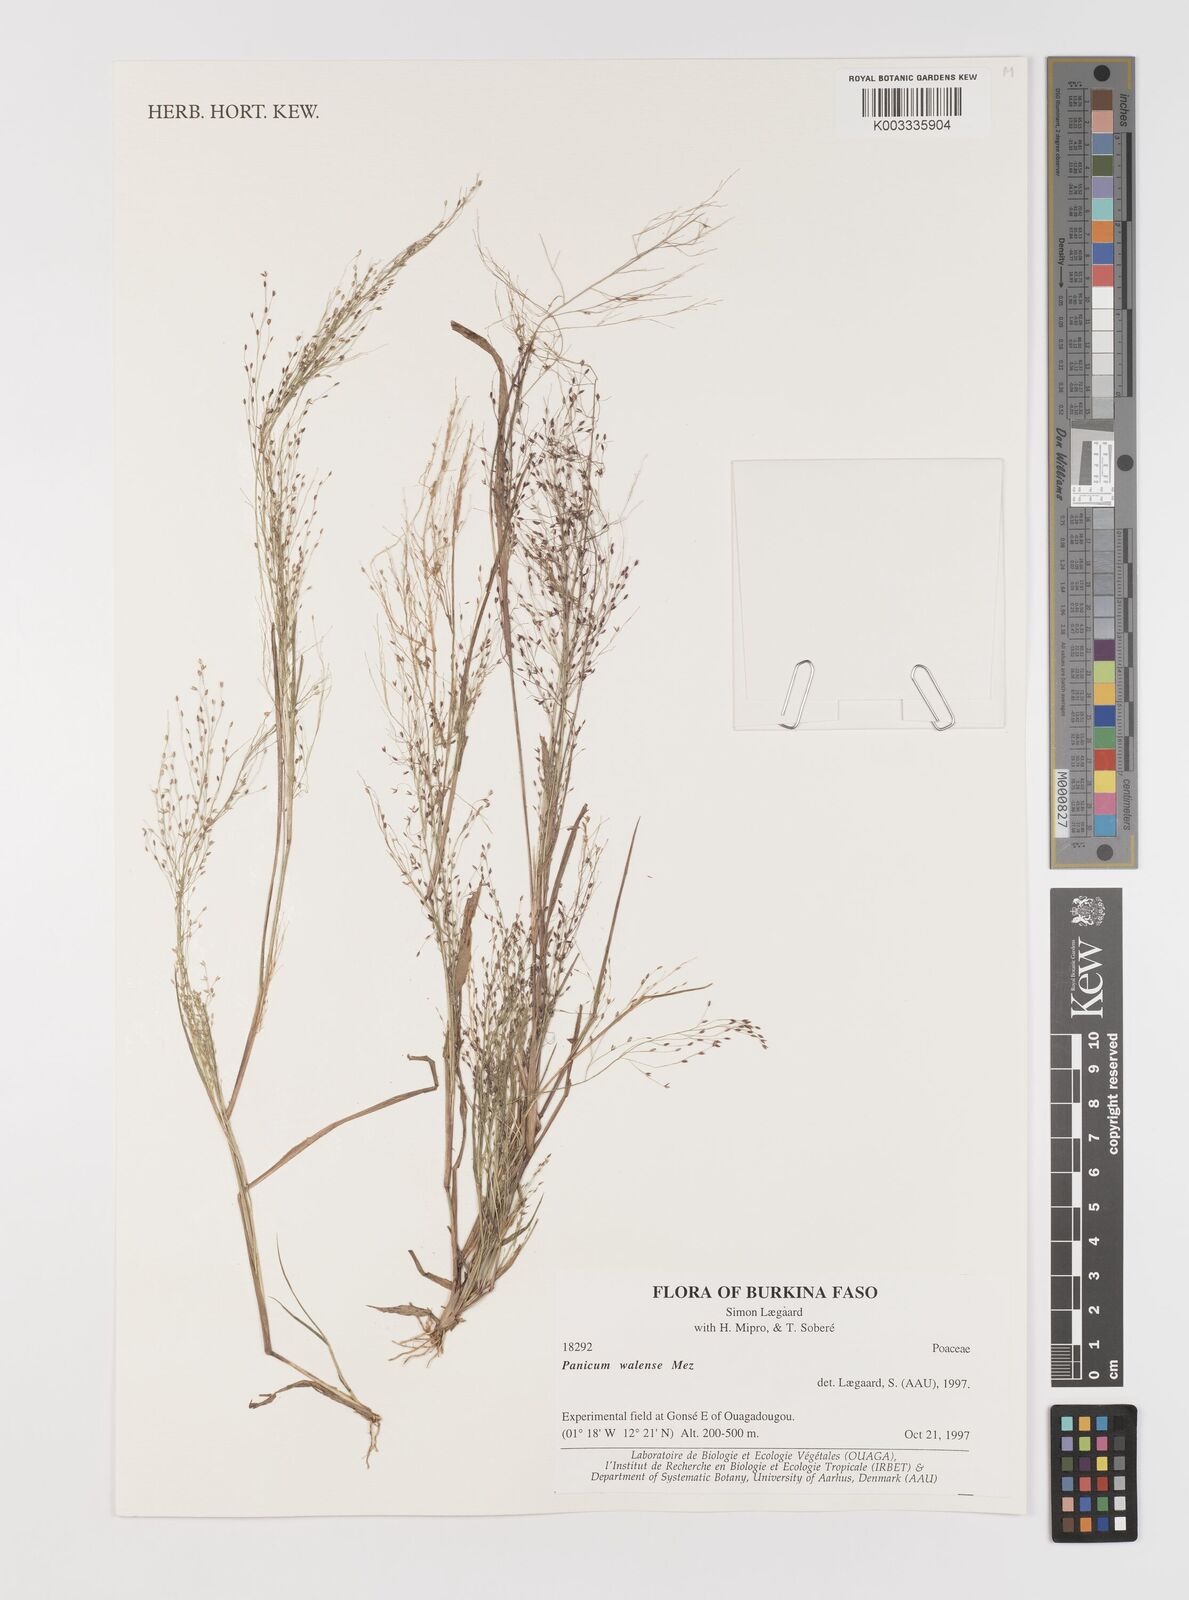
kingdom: Plantae
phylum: Tracheophyta
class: Liliopsida
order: Poales
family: Poaceae
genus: Panicum
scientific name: Panicum humile
